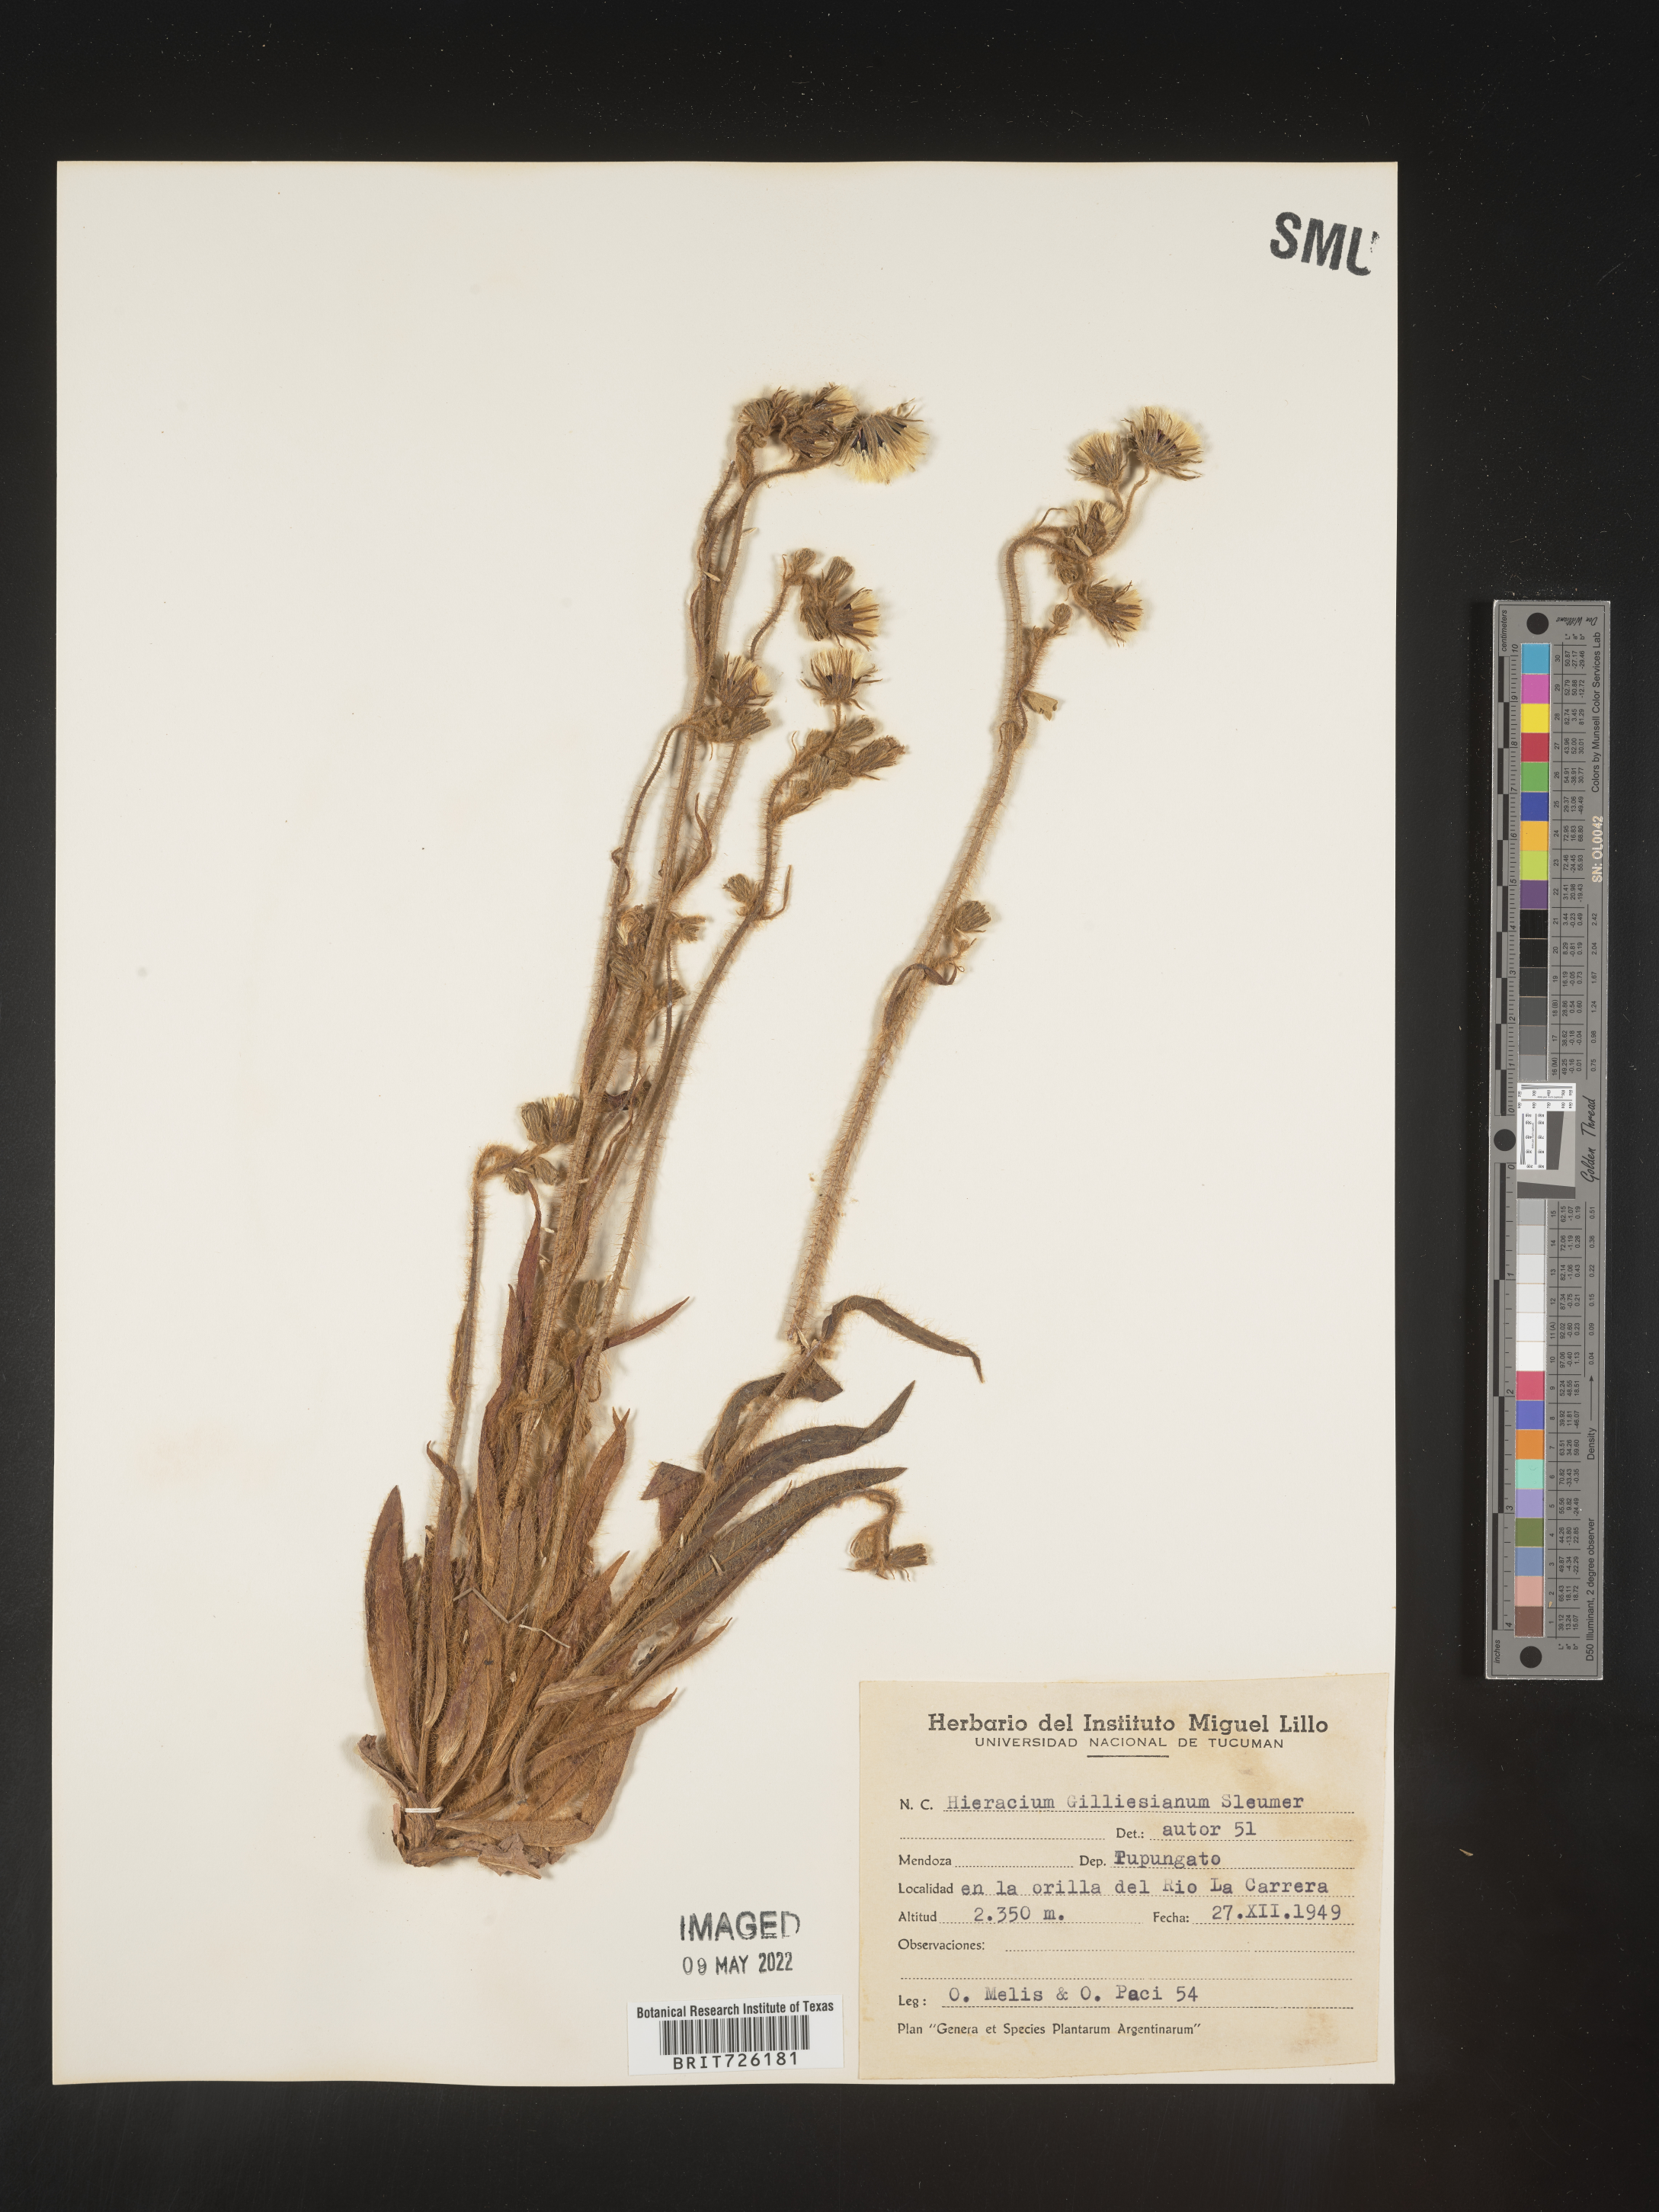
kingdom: Plantae
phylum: Tracheophyta
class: Magnoliopsida
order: Asterales
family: Asteraceae
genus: Hieracium
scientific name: Hieracium
